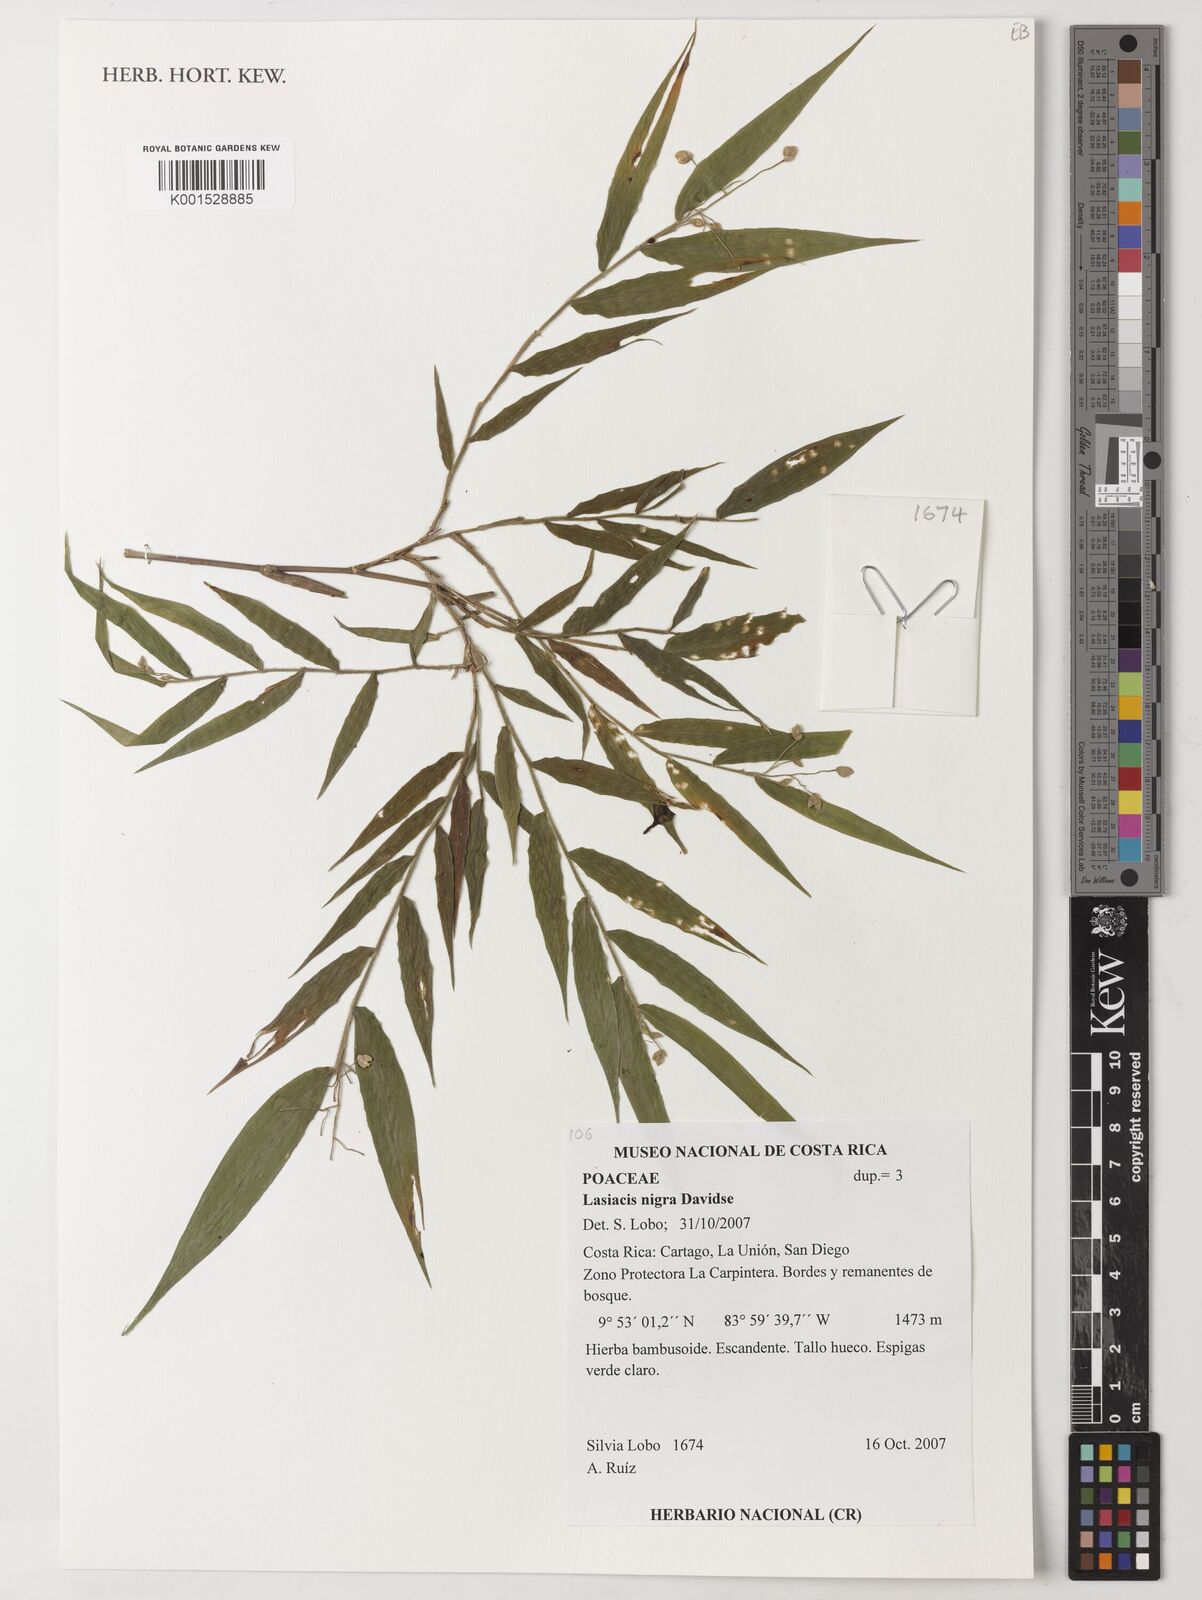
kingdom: Plantae
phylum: Tracheophyta
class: Liliopsida
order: Poales
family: Poaceae
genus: Lasiacis
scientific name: Lasiacis nigra
